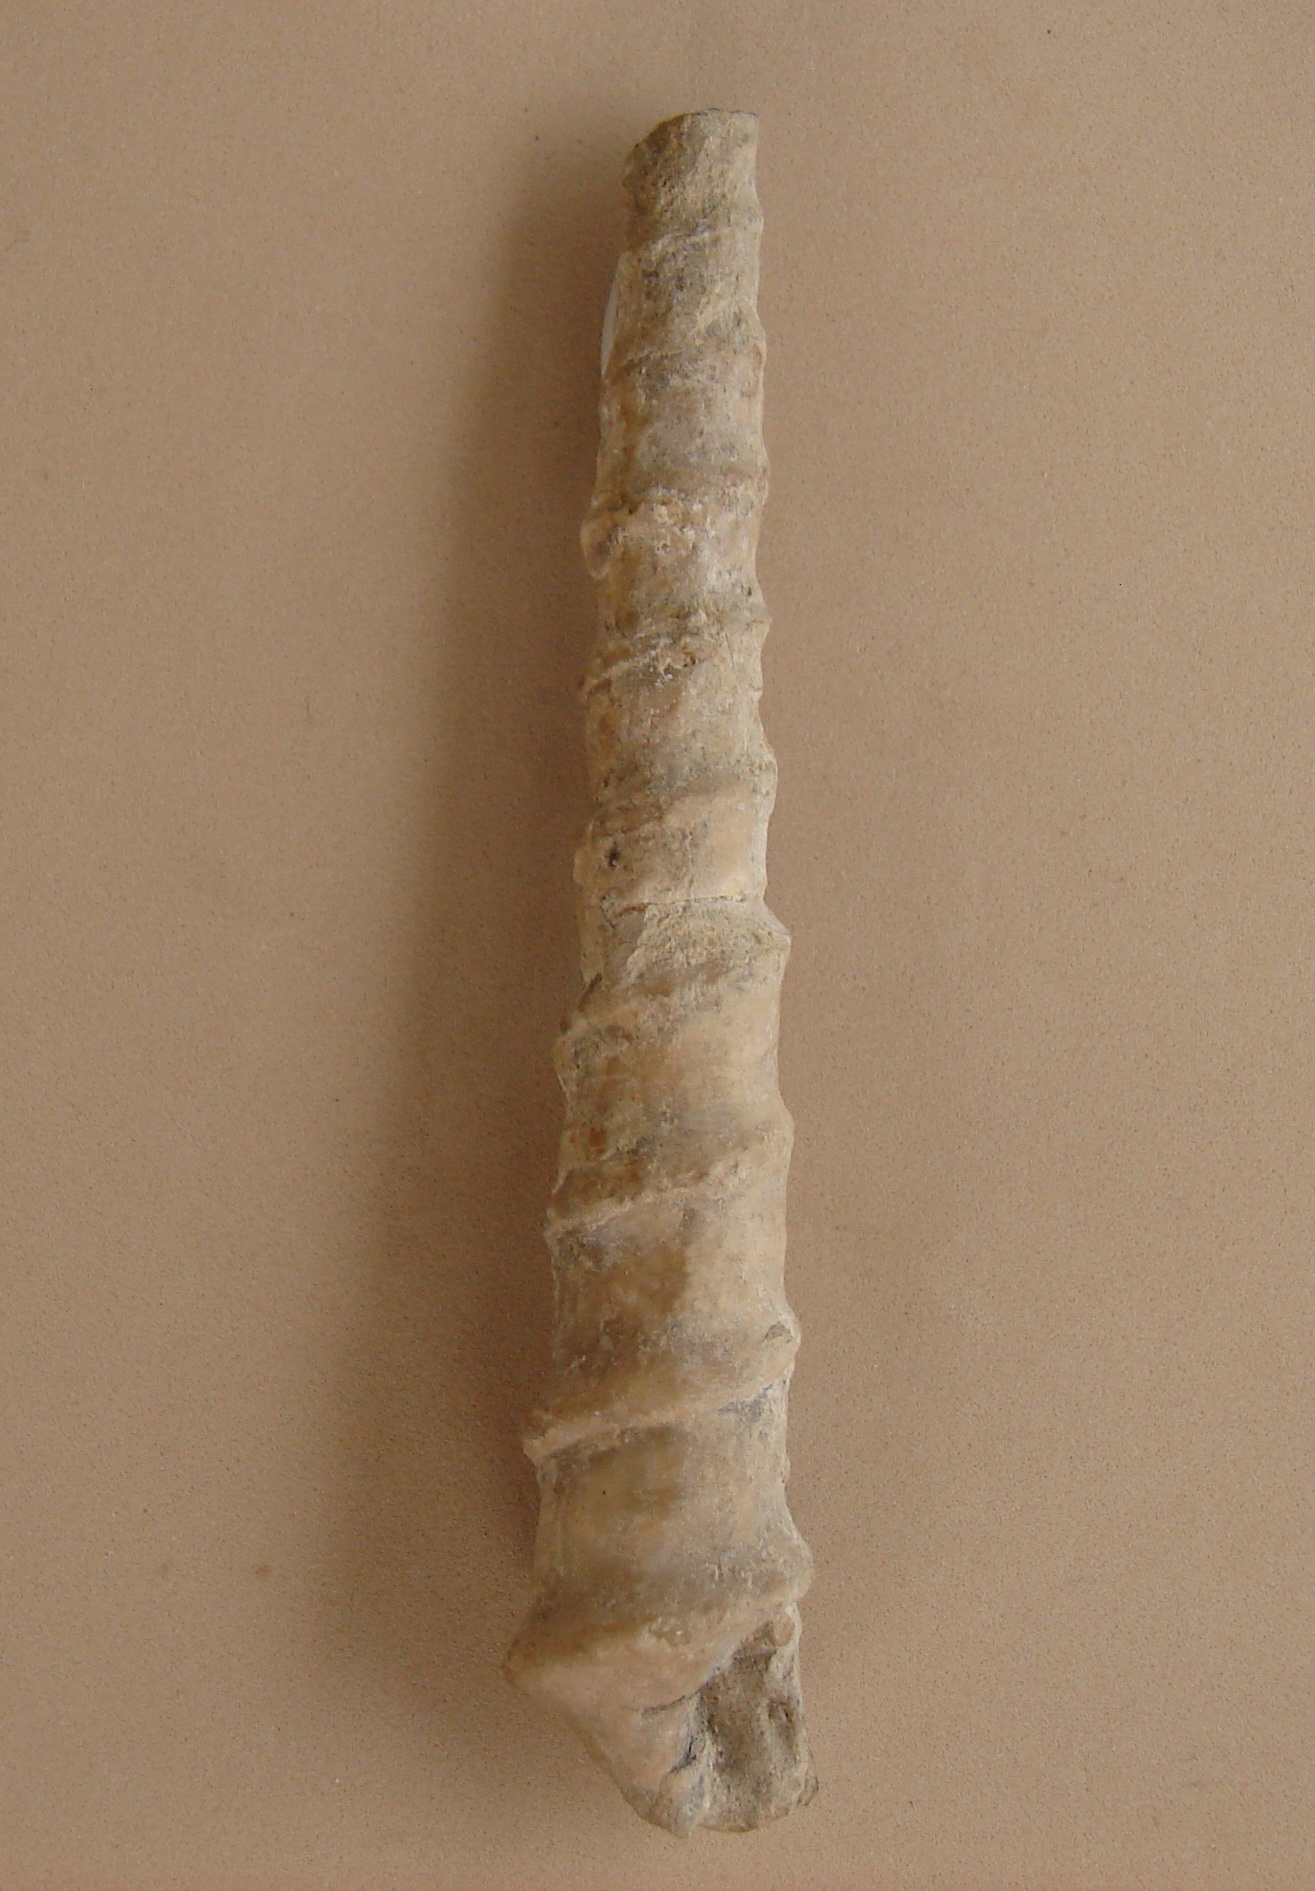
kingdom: Animalia
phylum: Mollusca
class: Gastropoda
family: Nerineidae
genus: Nerinea
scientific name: Nerinea
